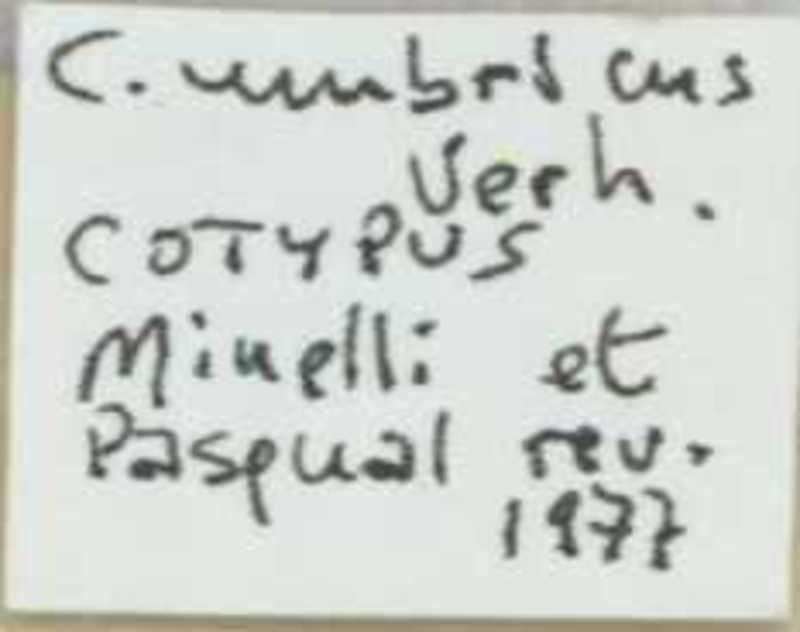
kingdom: Animalia
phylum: Arthropoda
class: Chilopoda
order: Scolopendromorpha
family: Cryptopidae
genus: Cryptops
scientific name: Cryptops umbricus
